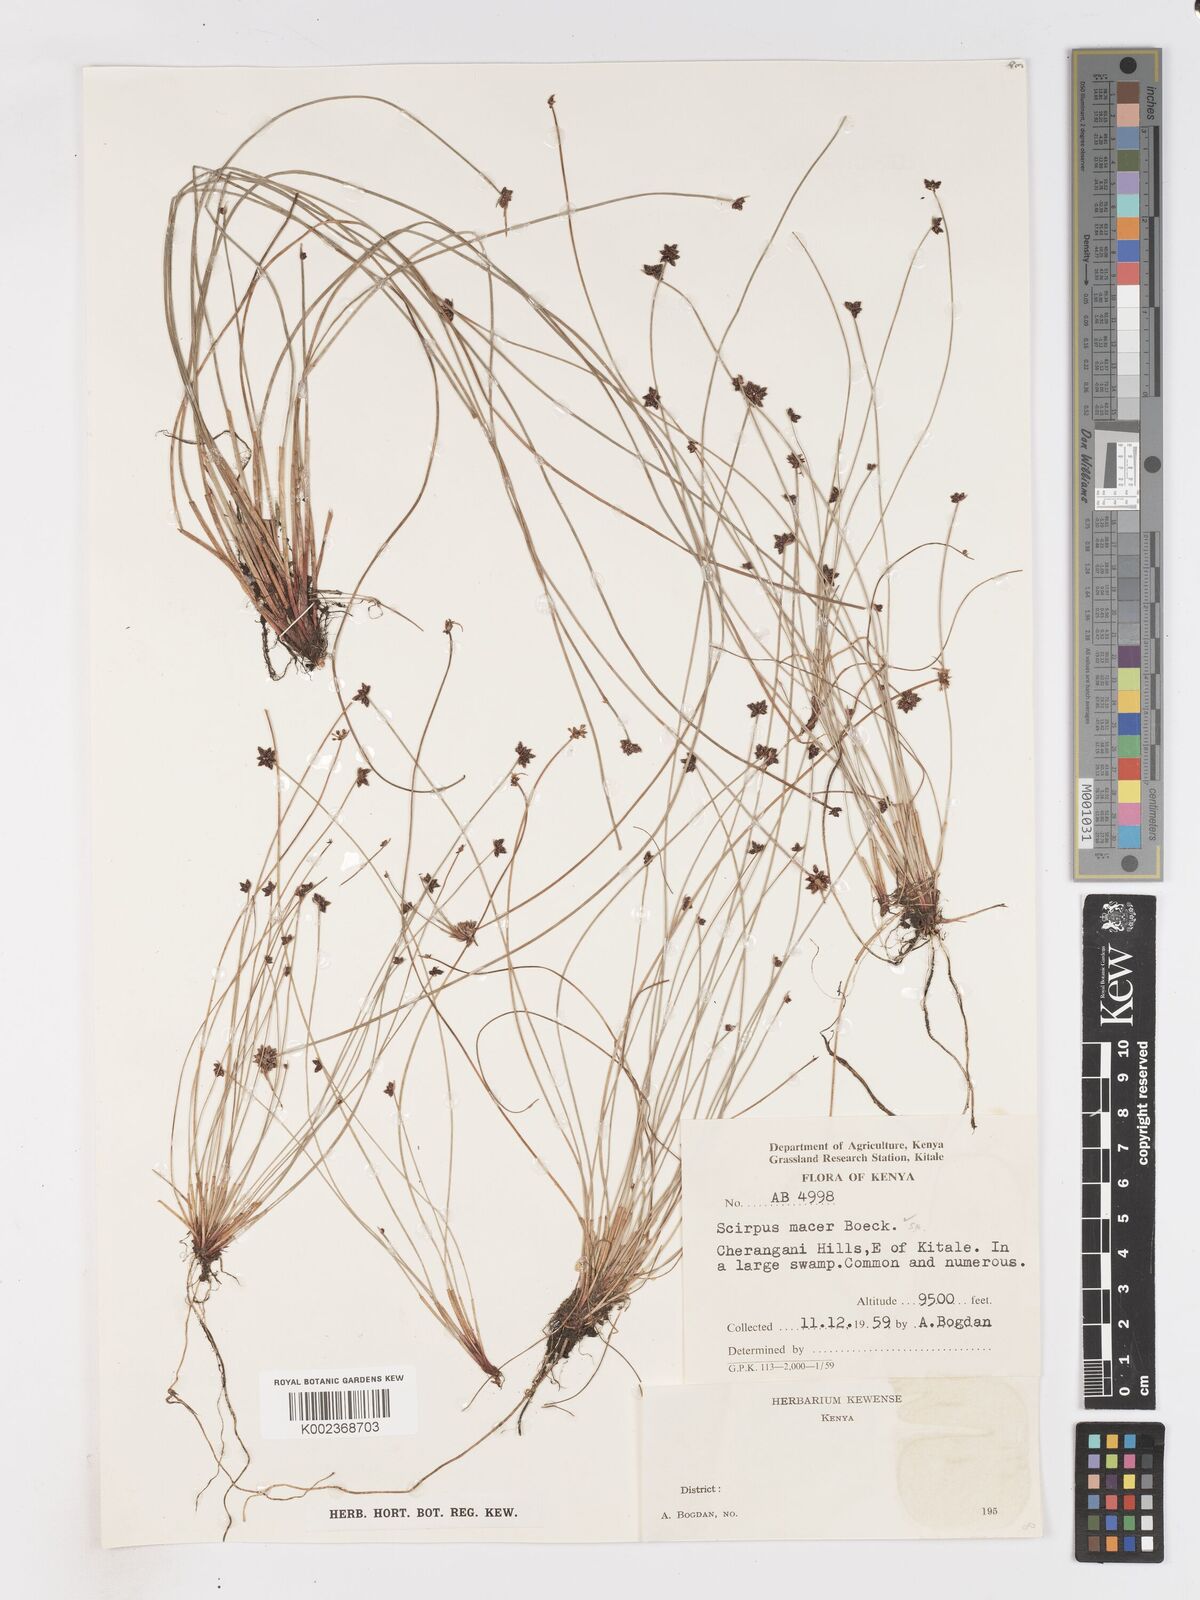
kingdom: Plantae
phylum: Tracheophyta
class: Liliopsida
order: Poales
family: Cyperaceae
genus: Isolepis
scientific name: Isolepis costata
